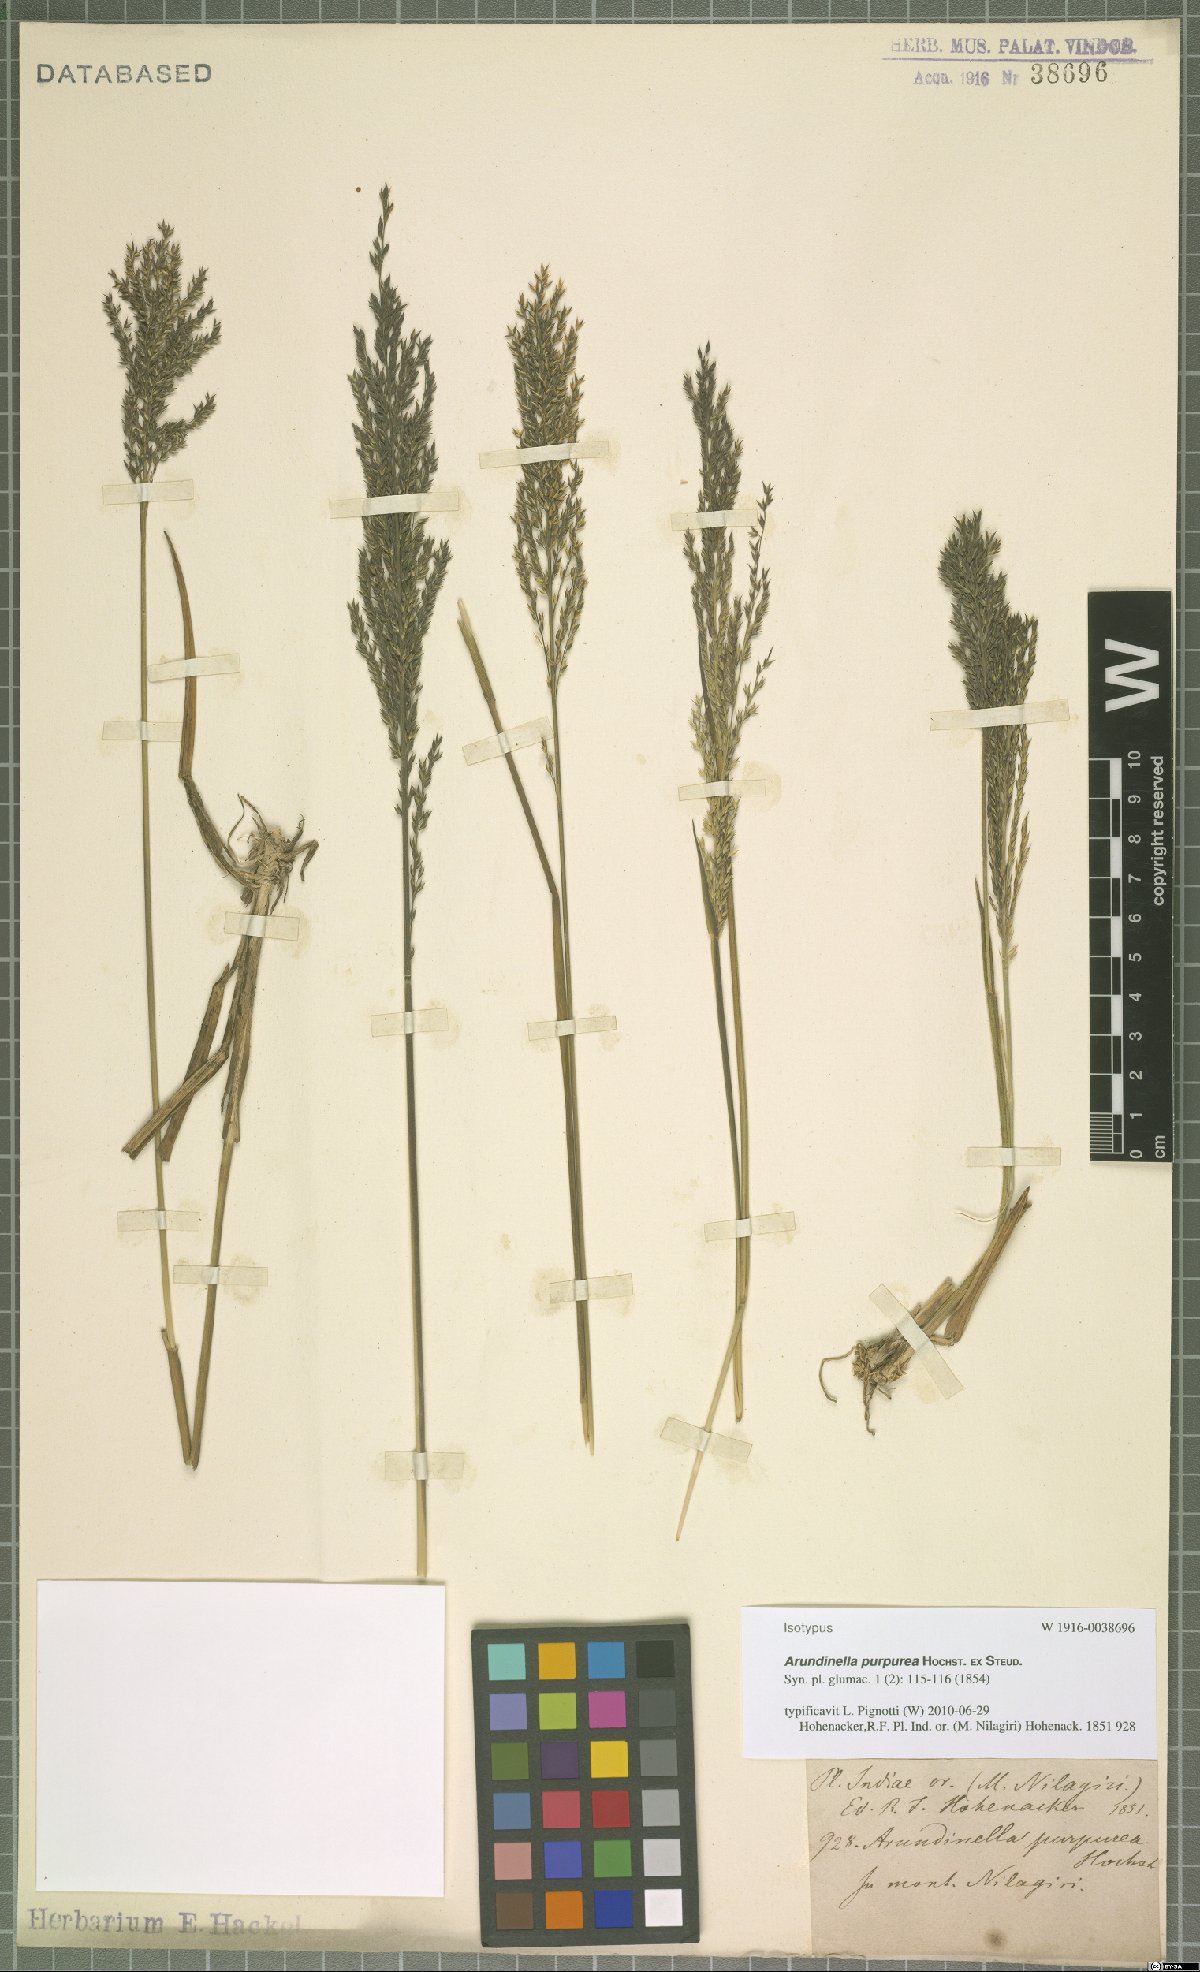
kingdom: Plantae
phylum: Tracheophyta
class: Liliopsida
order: Poales
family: Poaceae
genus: Arundinella
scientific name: Arundinella fuscata
